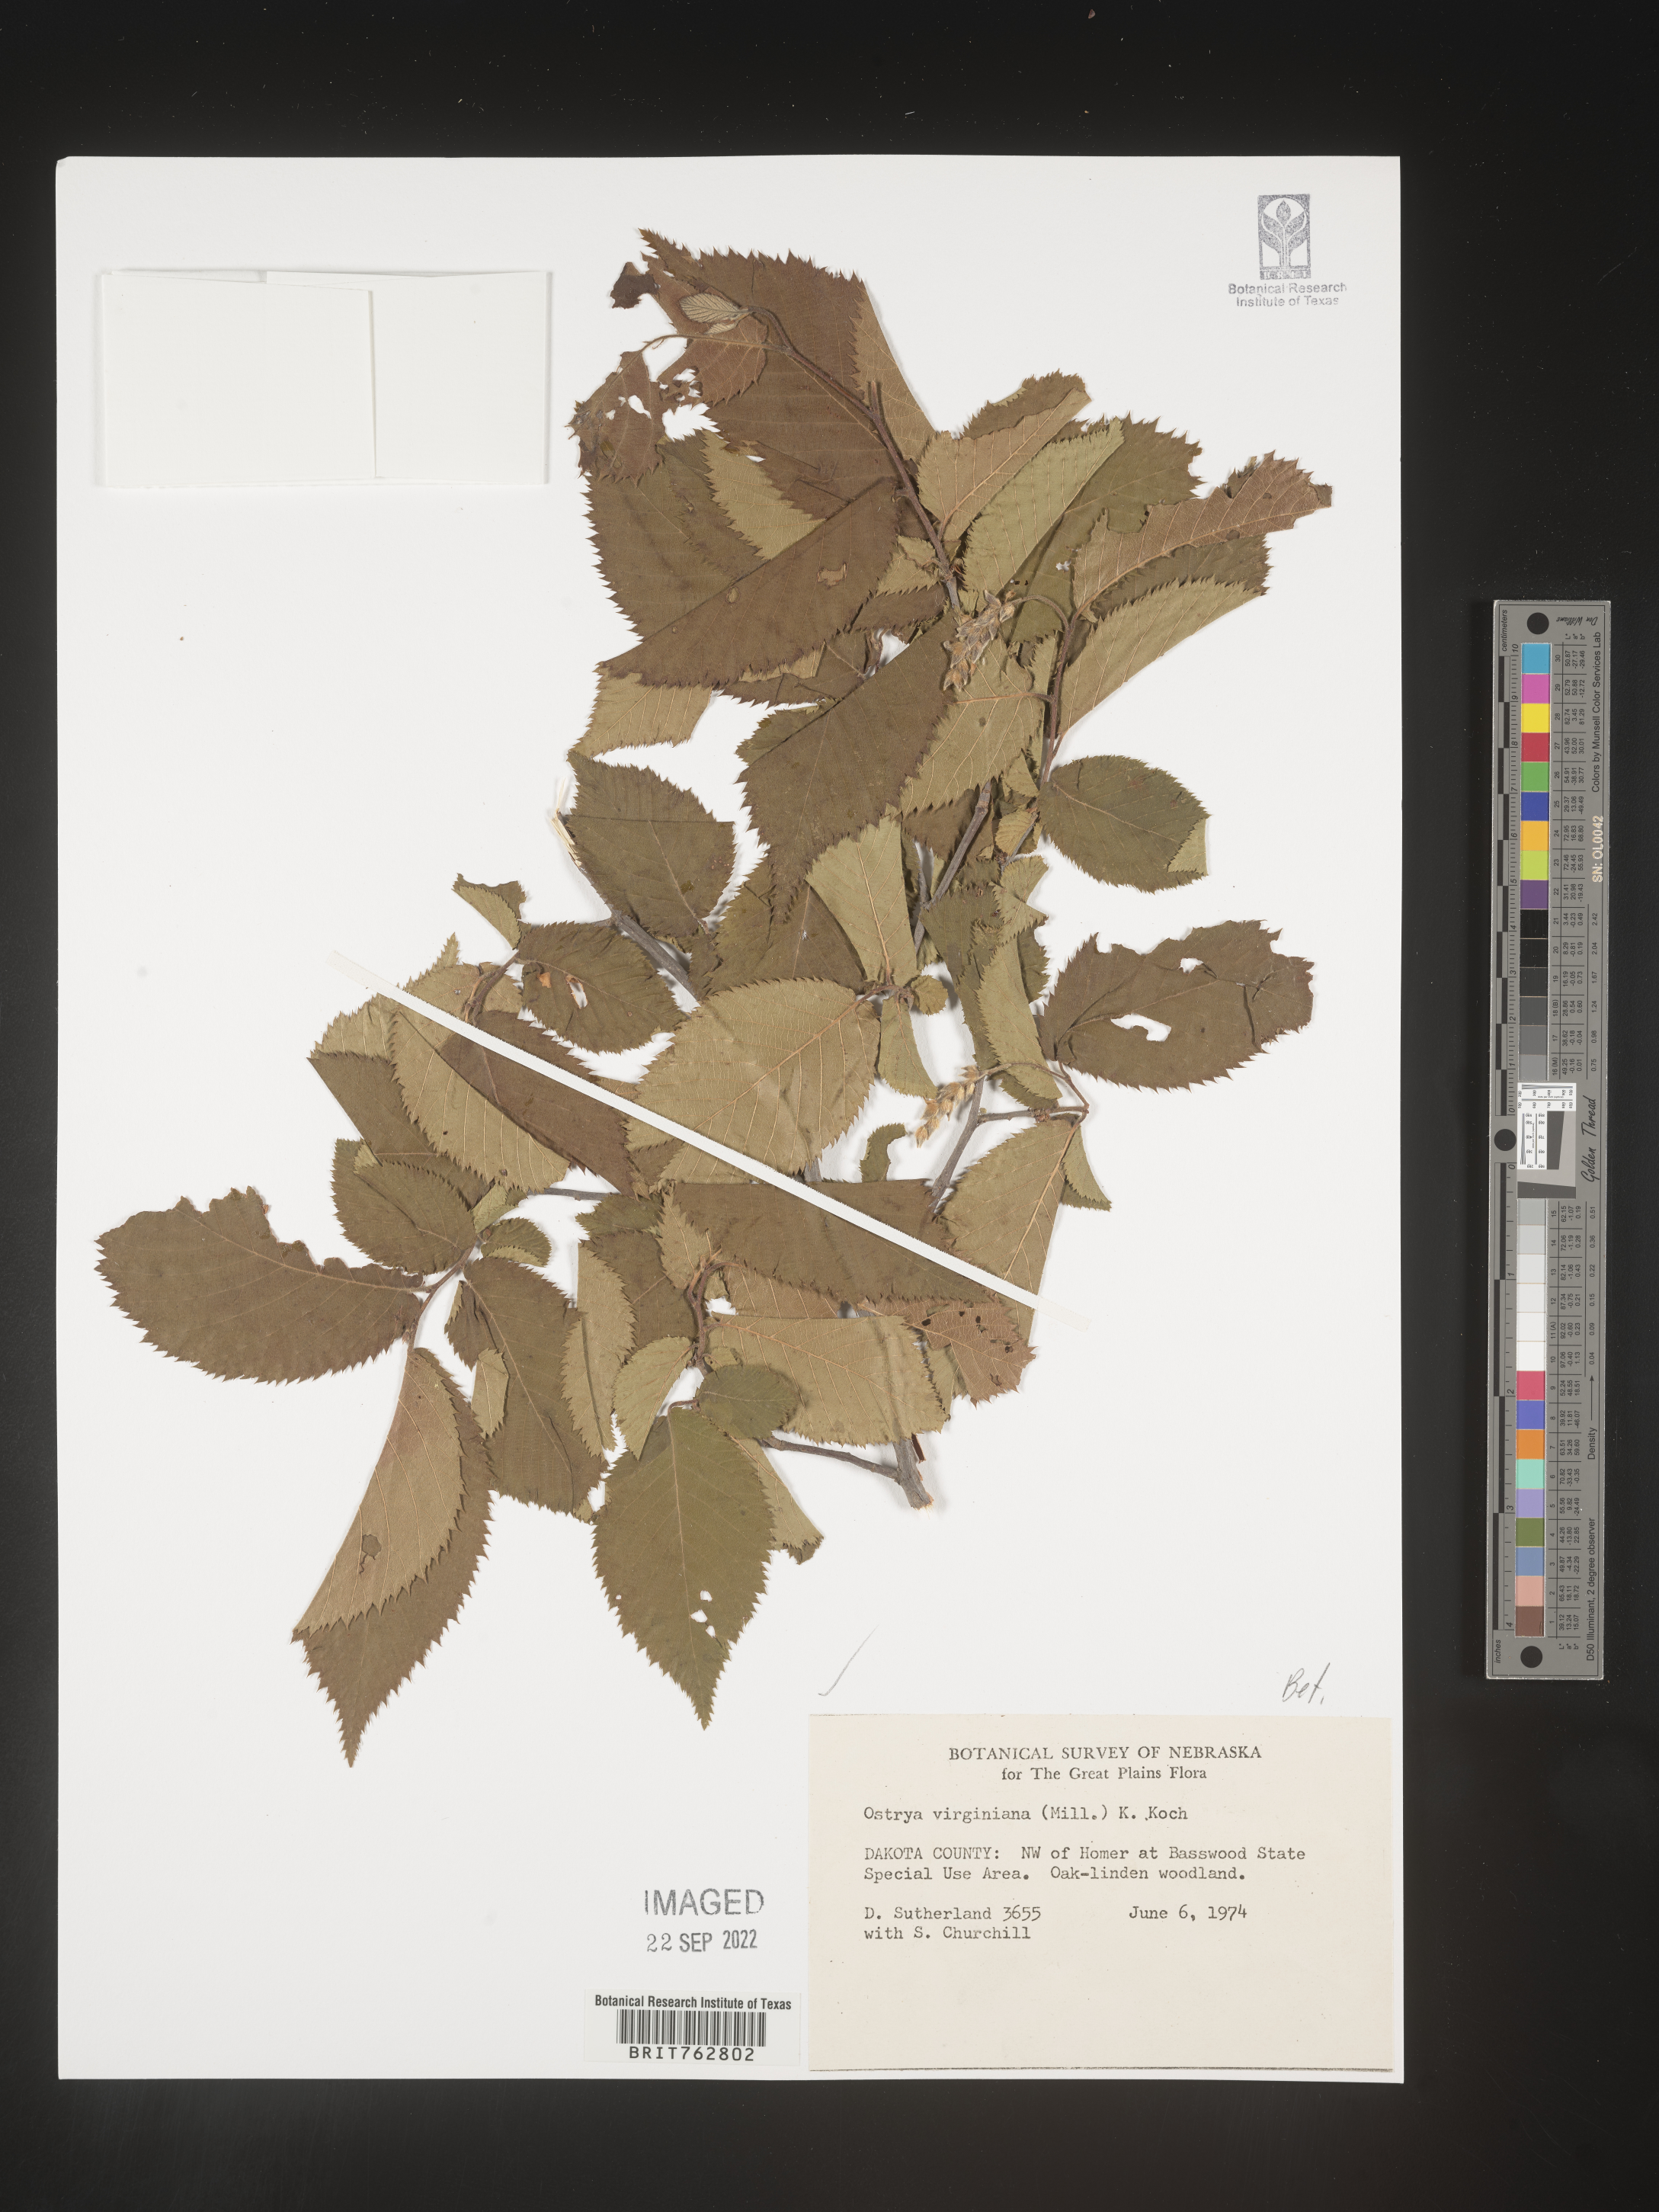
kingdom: Plantae
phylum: Tracheophyta
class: Magnoliopsida
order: Fagales
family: Betulaceae
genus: Ostrya
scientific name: Ostrya virginiana
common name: Ironwood
